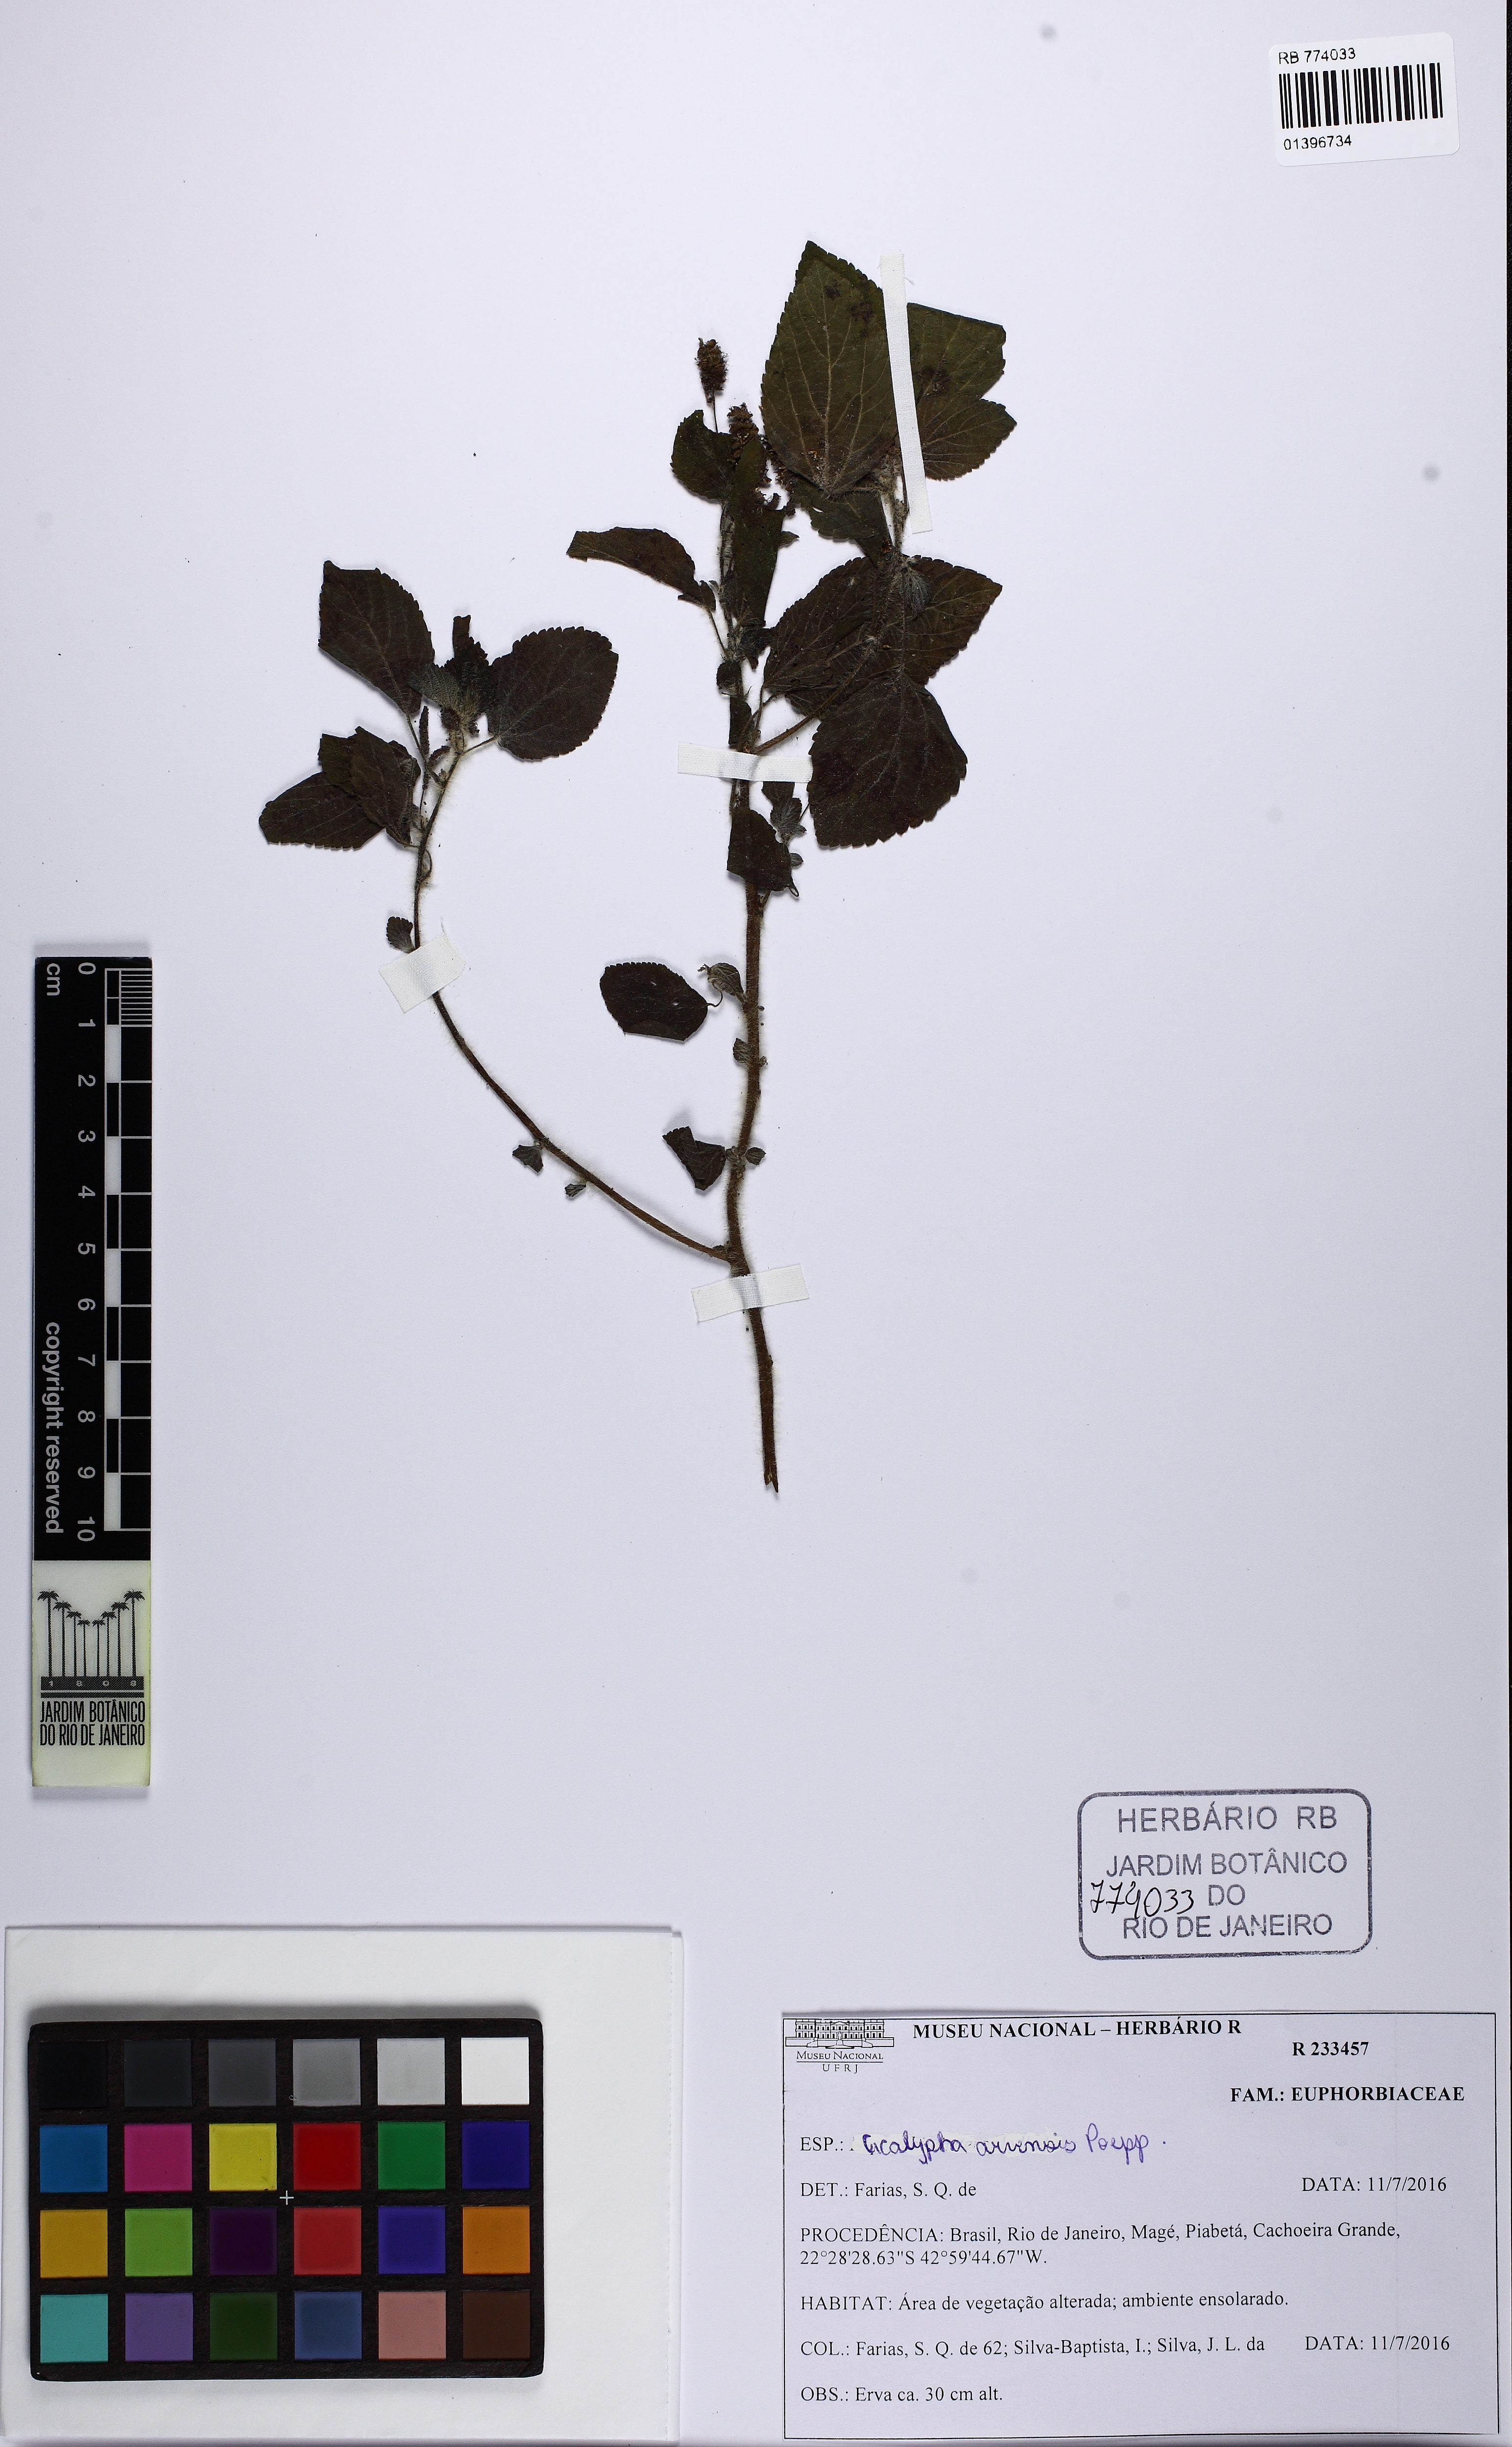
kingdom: Plantae
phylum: Tracheophyta
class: Magnoliopsida
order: Malpighiales
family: Euphorbiaceae
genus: Acalypha
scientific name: Acalypha arvensis
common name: Field copperleaf
